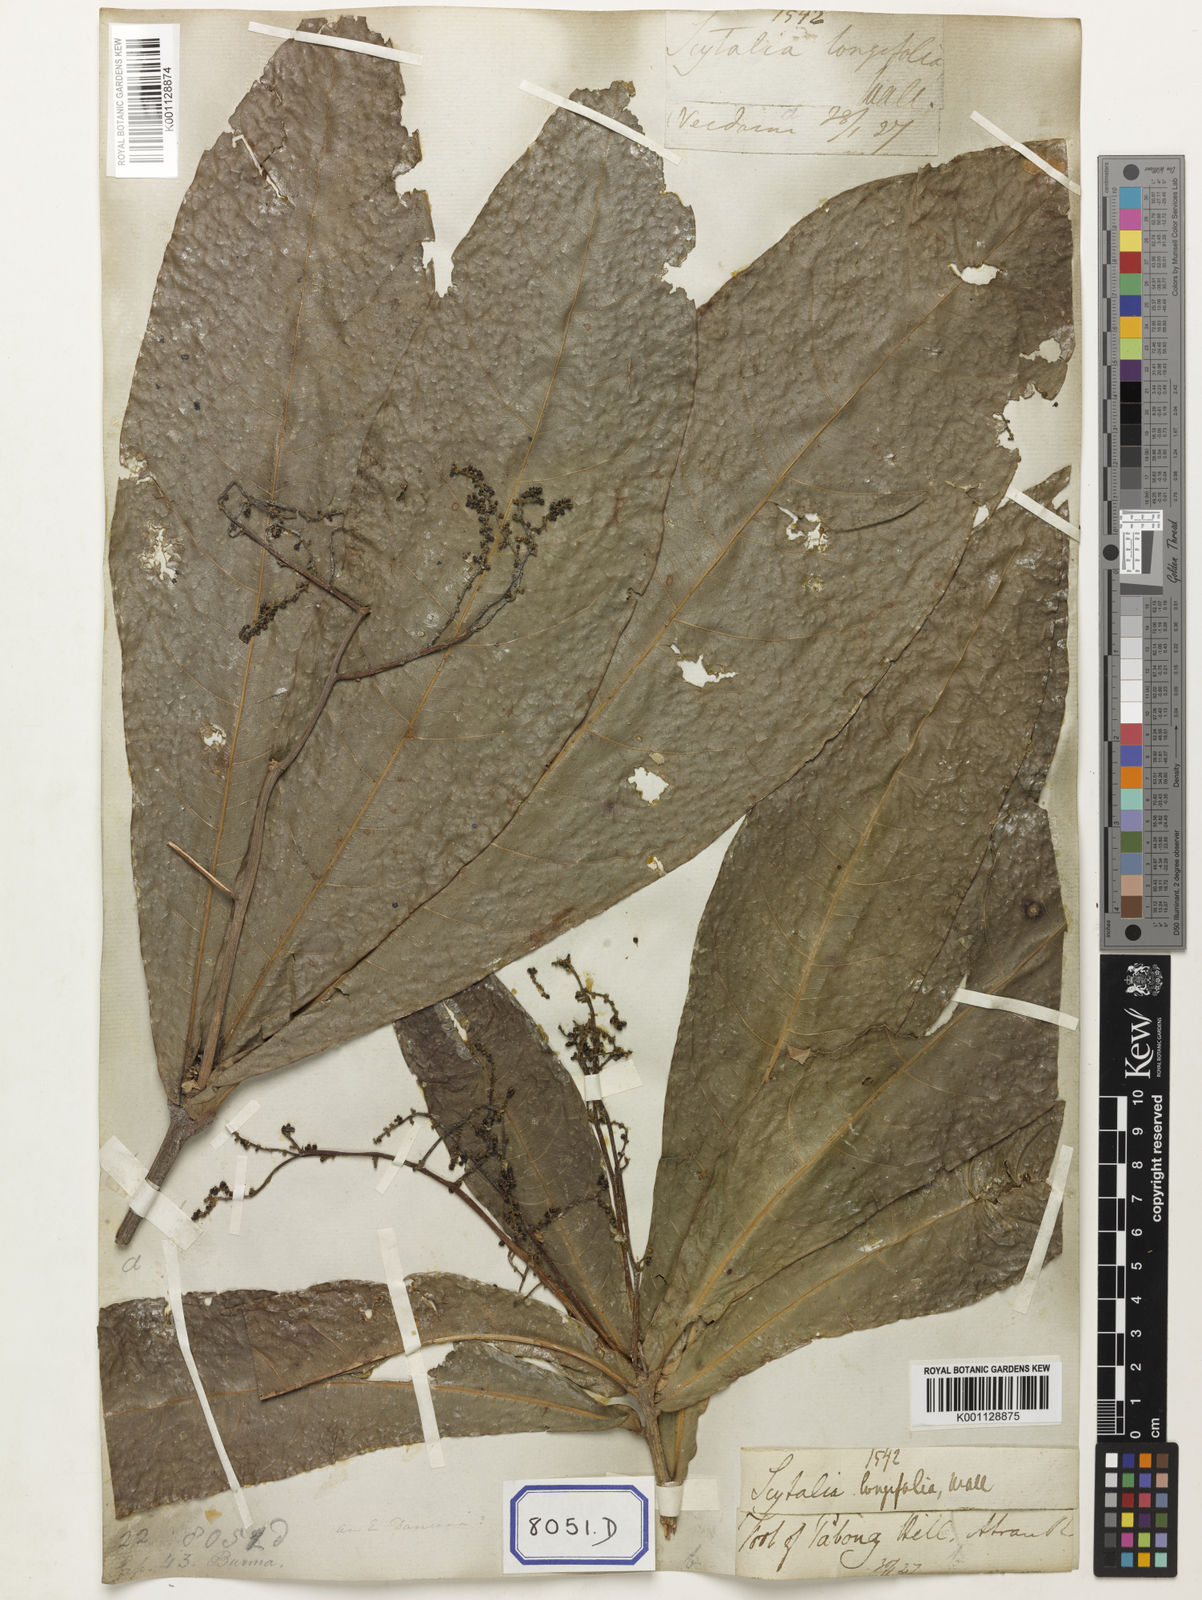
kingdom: Plantae
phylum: Tracheophyta
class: Magnoliopsida
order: Sapindales
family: Sapindaceae
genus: Lepisanthes
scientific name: Lepisanthes senegalensis
